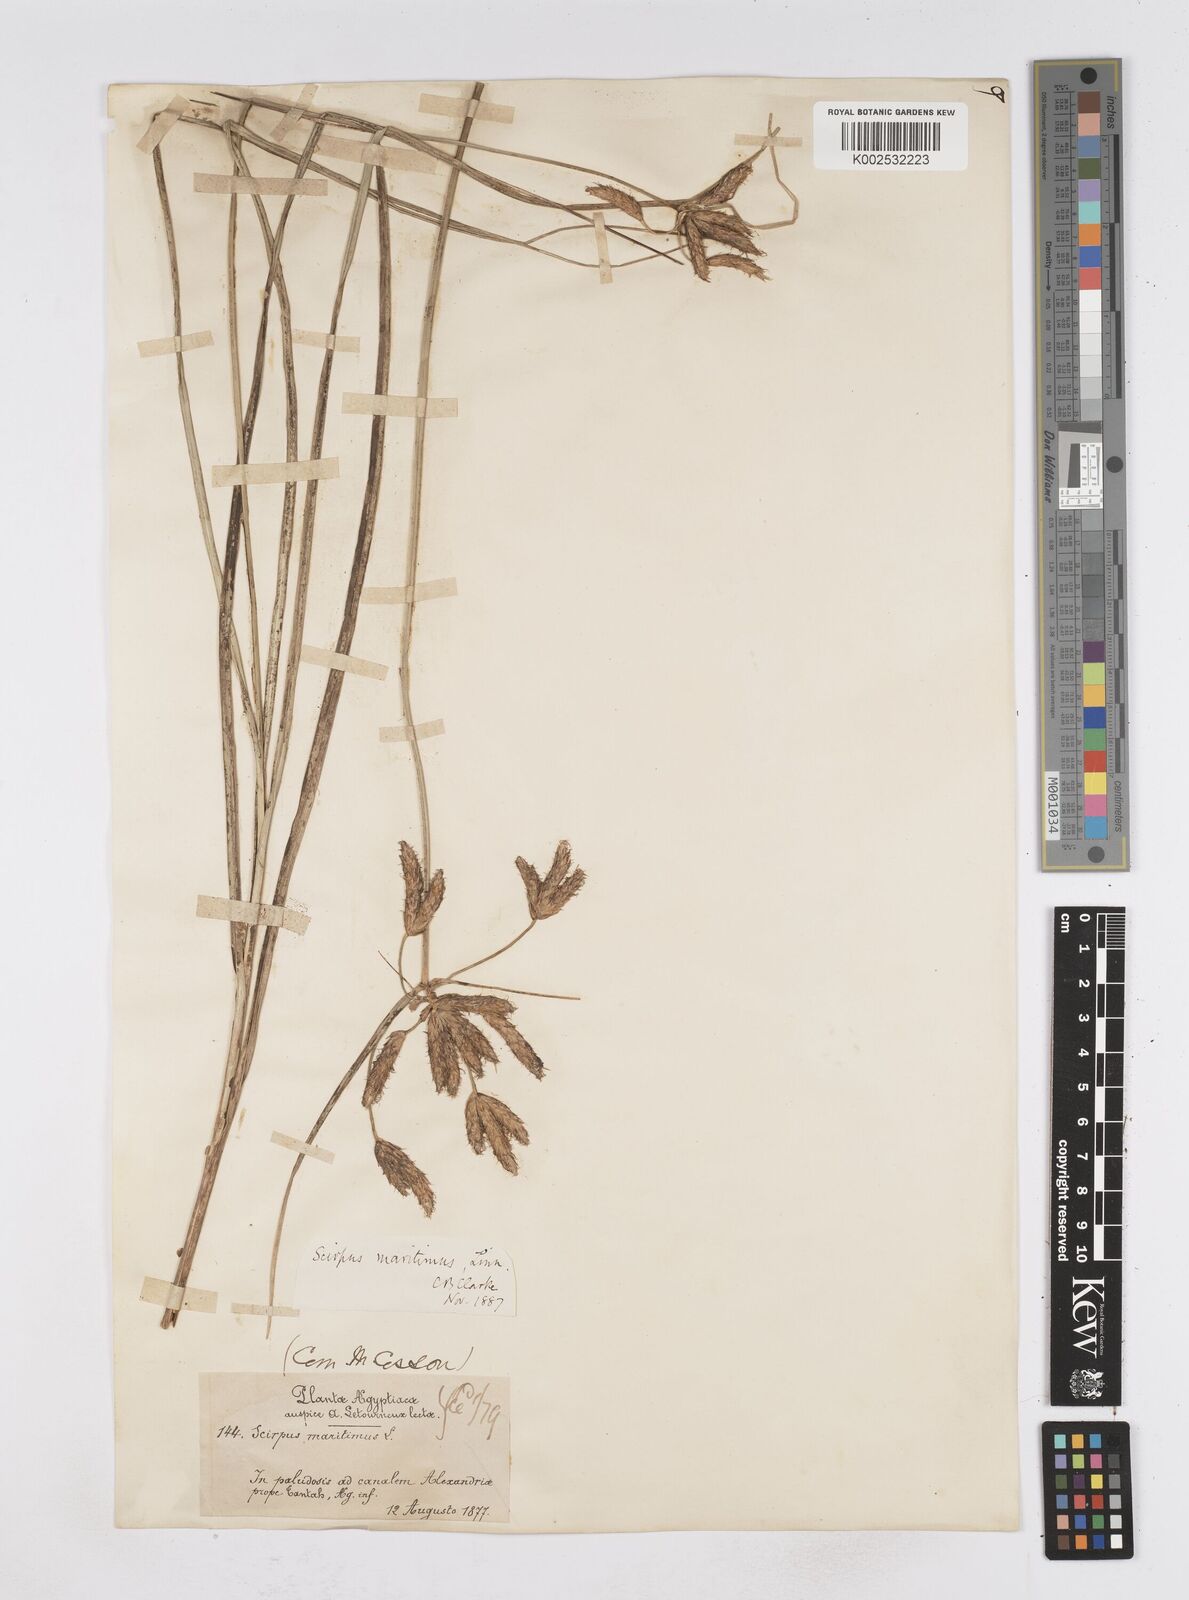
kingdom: Plantae
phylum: Tracheophyta
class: Liliopsida
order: Poales
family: Cyperaceae
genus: Bolboschoenus
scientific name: Bolboschoenus maritimus
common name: Sea club-rush
